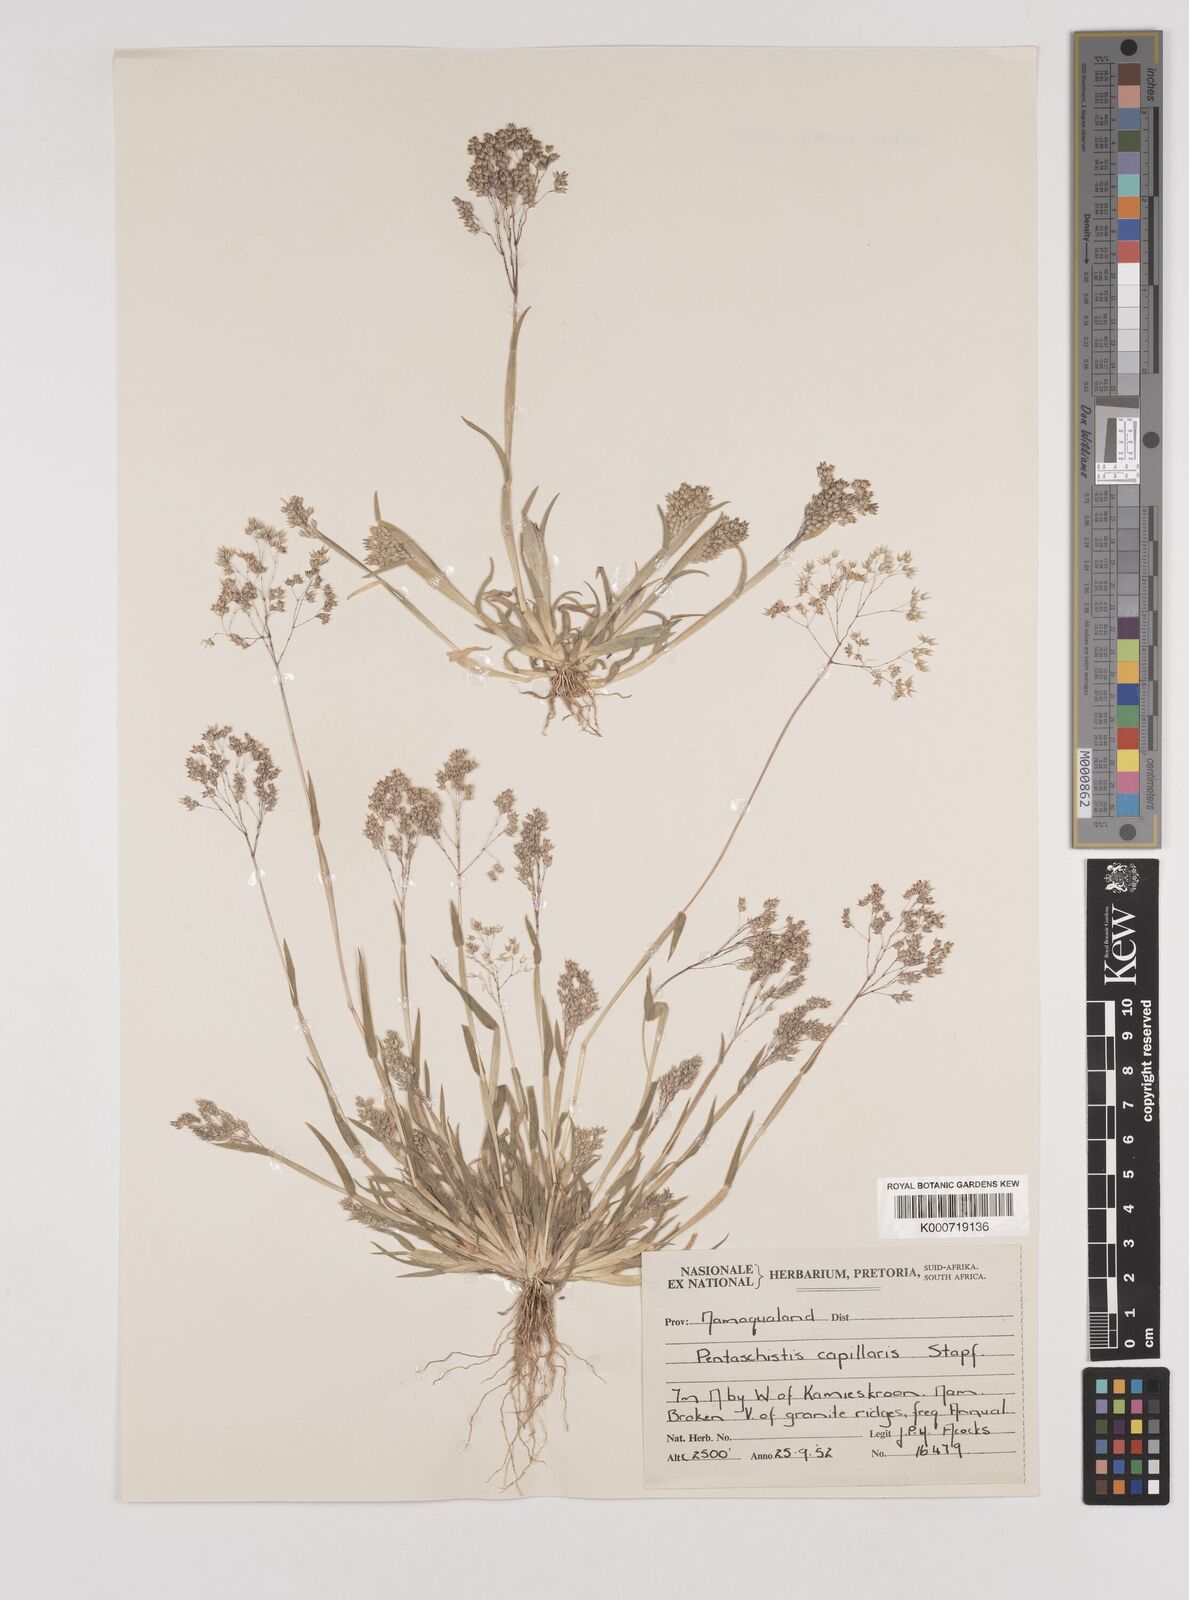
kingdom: Plantae
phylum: Tracheophyta
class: Liliopsida
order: Poales
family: Poaceae
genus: Pentameris
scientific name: Pentameris capillaris
